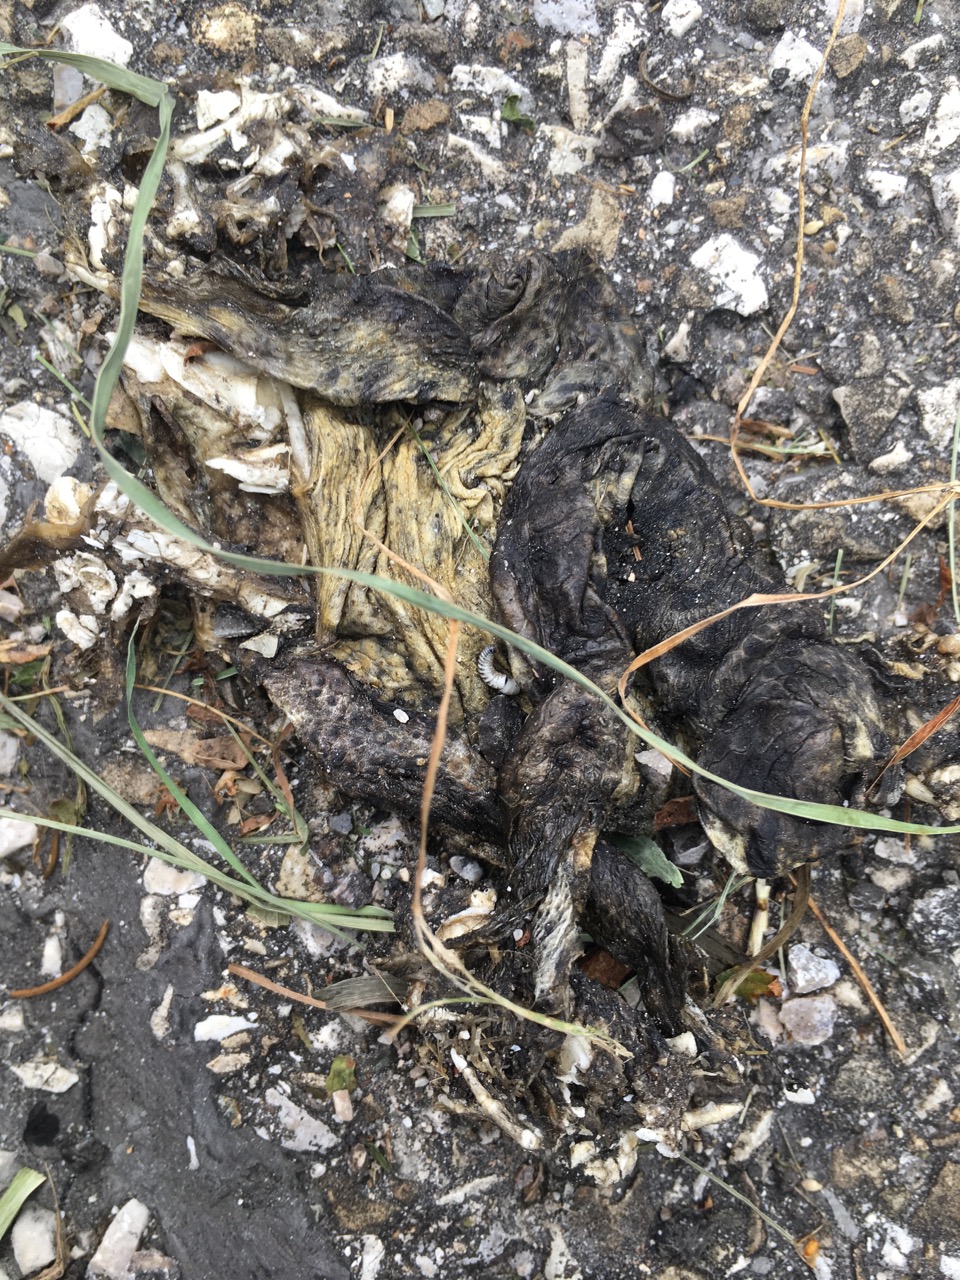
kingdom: Animalia
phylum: Chordata
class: Amphibia
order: Anura
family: Bufonidae
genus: Bufo
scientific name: Bufo bufo
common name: Common toad
